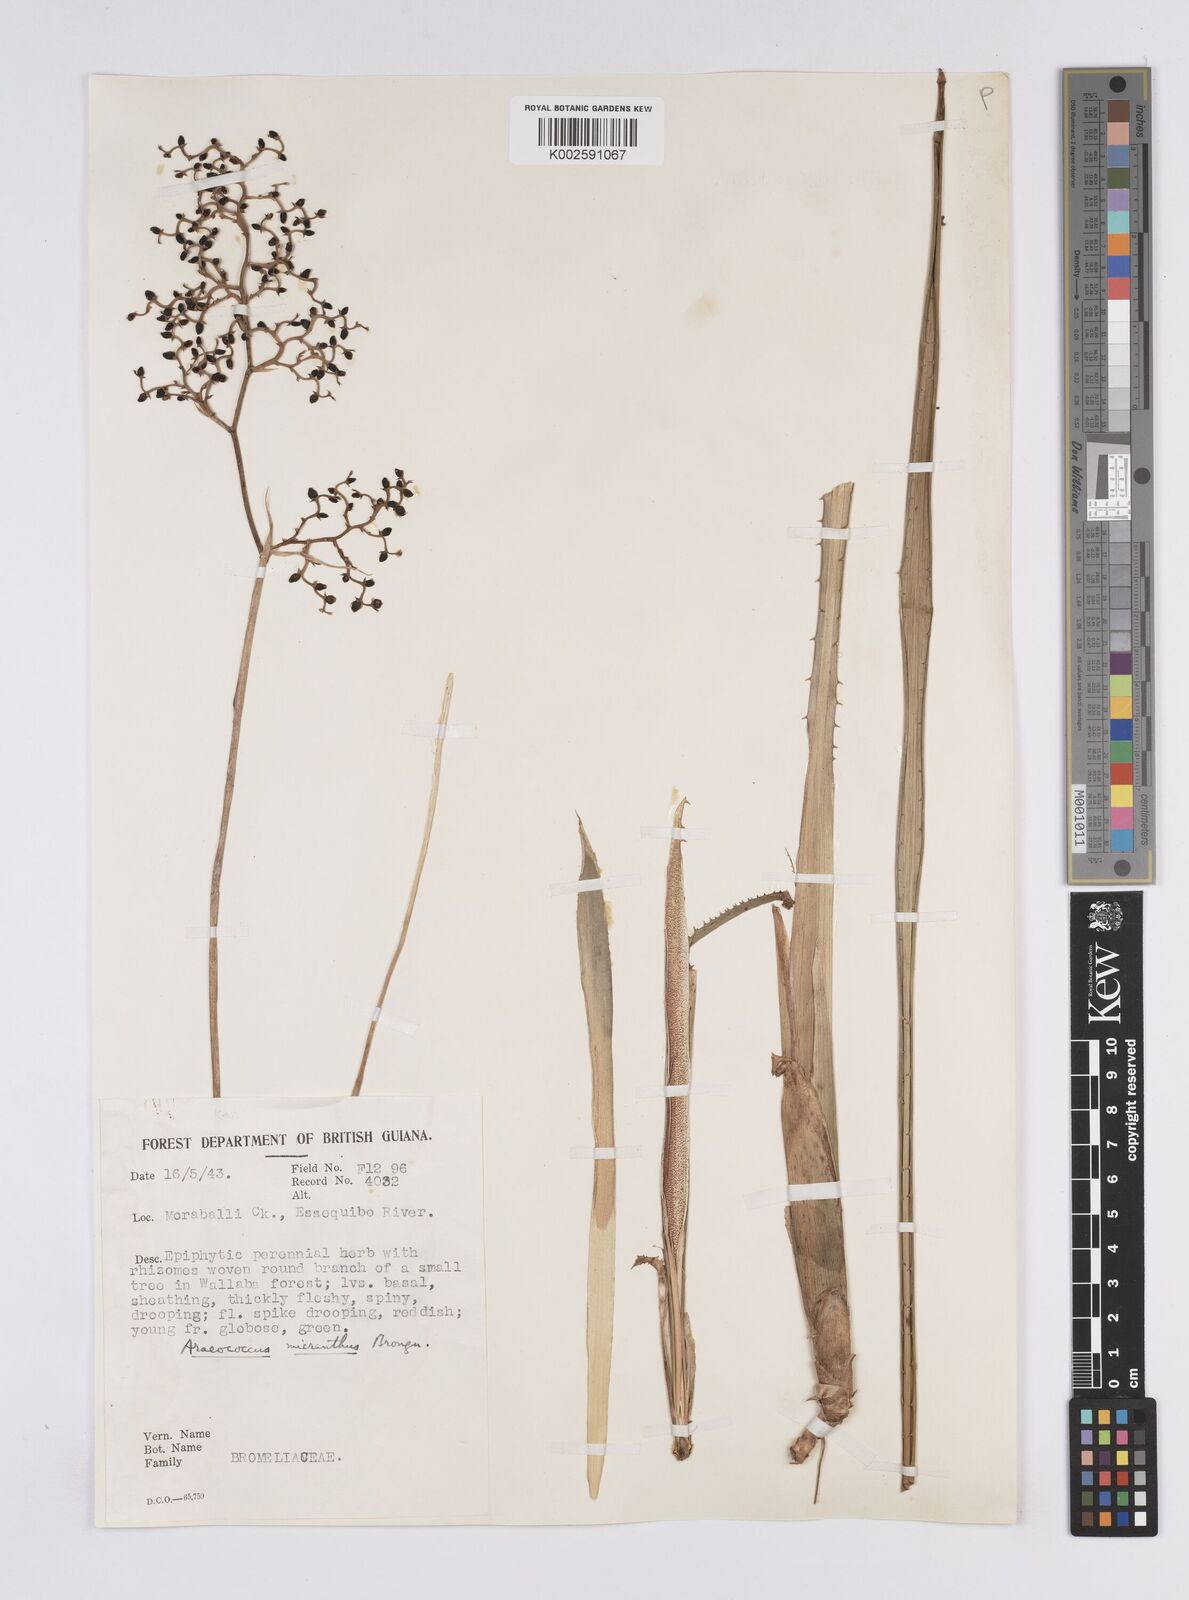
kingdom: Plantae
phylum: Tracheophyta
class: Liliopsida
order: Poales
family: Bromeliaceae
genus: Araeococcus
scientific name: Araeococcus micranthus
